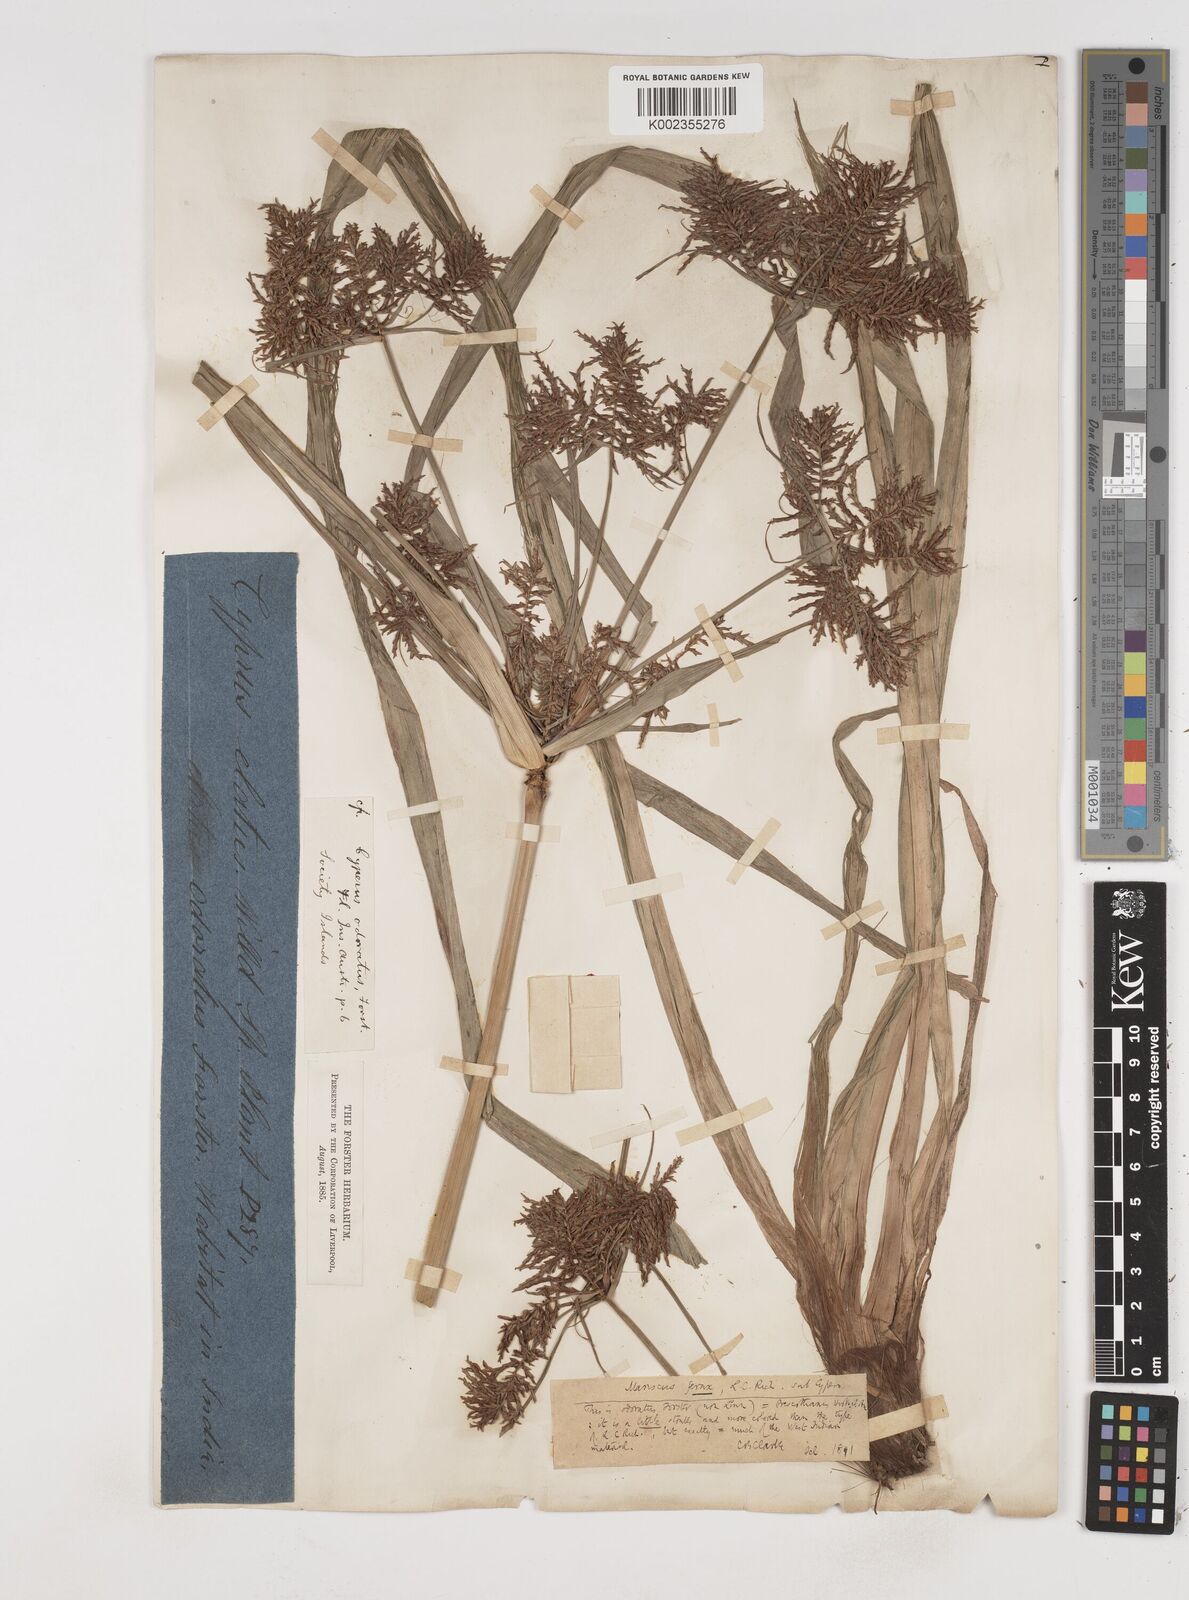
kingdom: Plantae
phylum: Tracheophyta
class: Liliopsida
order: Poales
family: Cyperaceae
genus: Cyperus
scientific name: Cyperus odoratus
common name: Fragrant flatsedge
